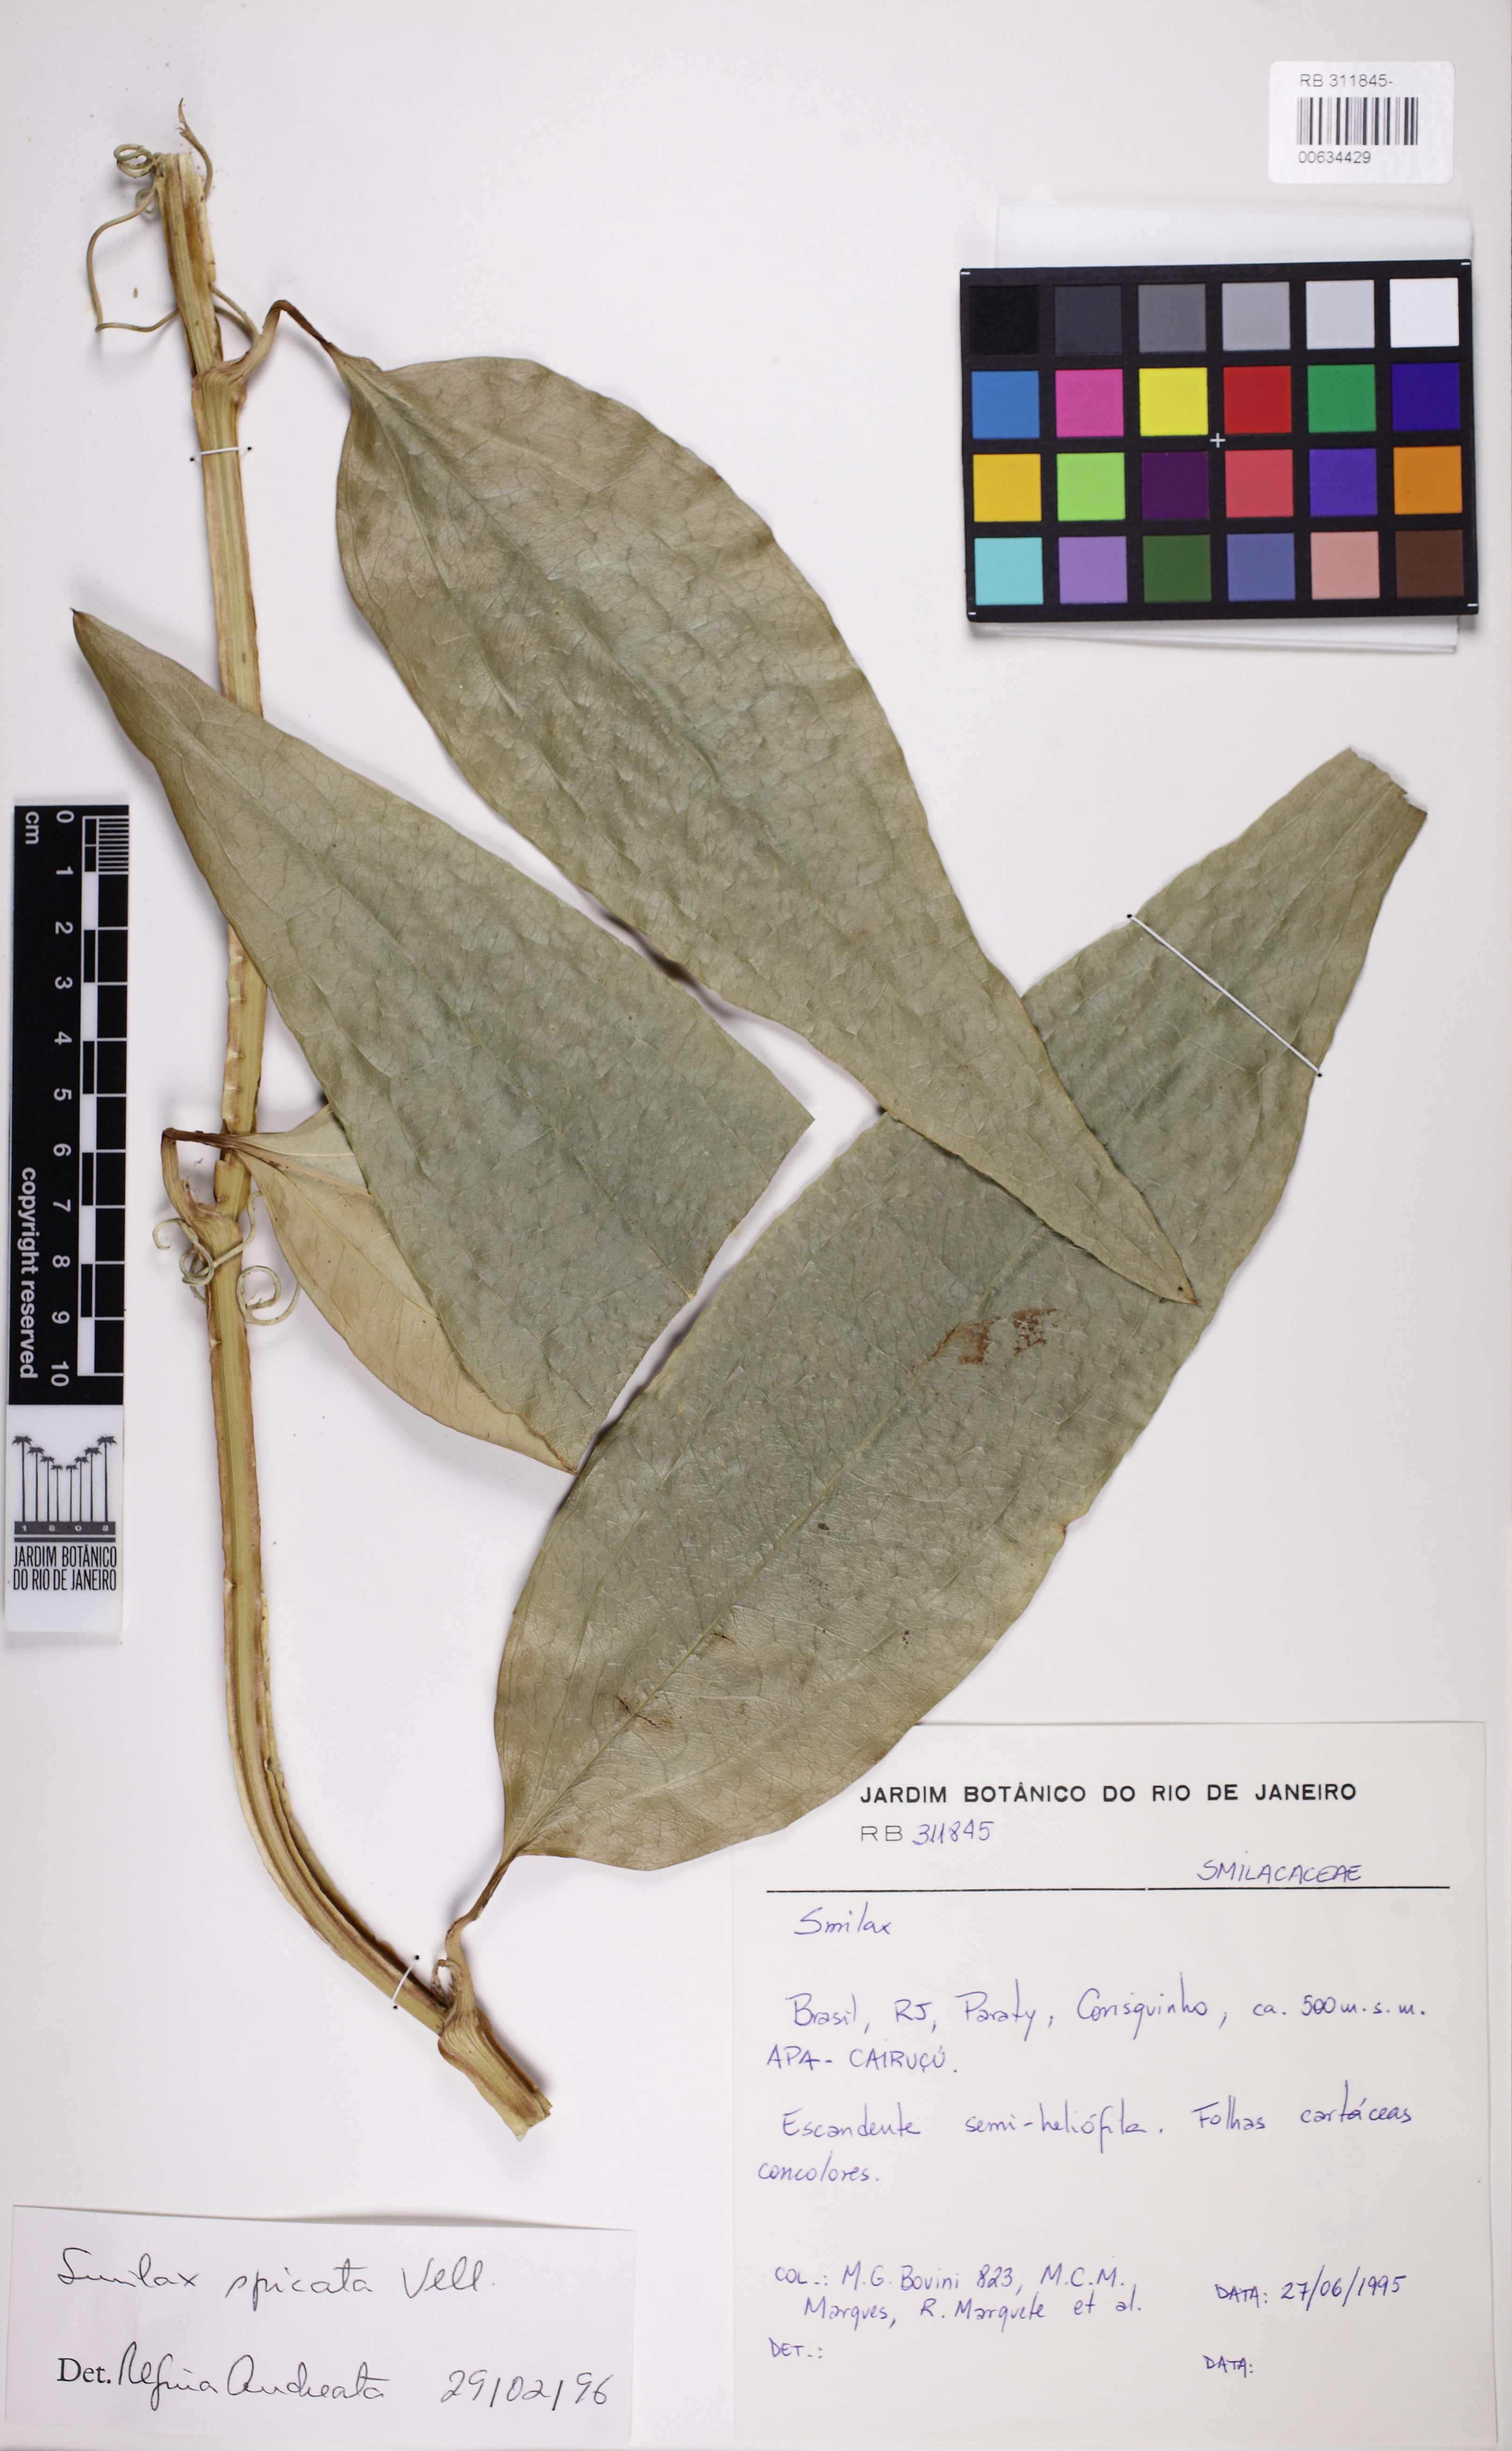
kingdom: Plantae
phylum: Tracheophyta
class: Liliopsida
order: Liliales
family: Smilacaceae
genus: Smilax
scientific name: Smilax spicata
